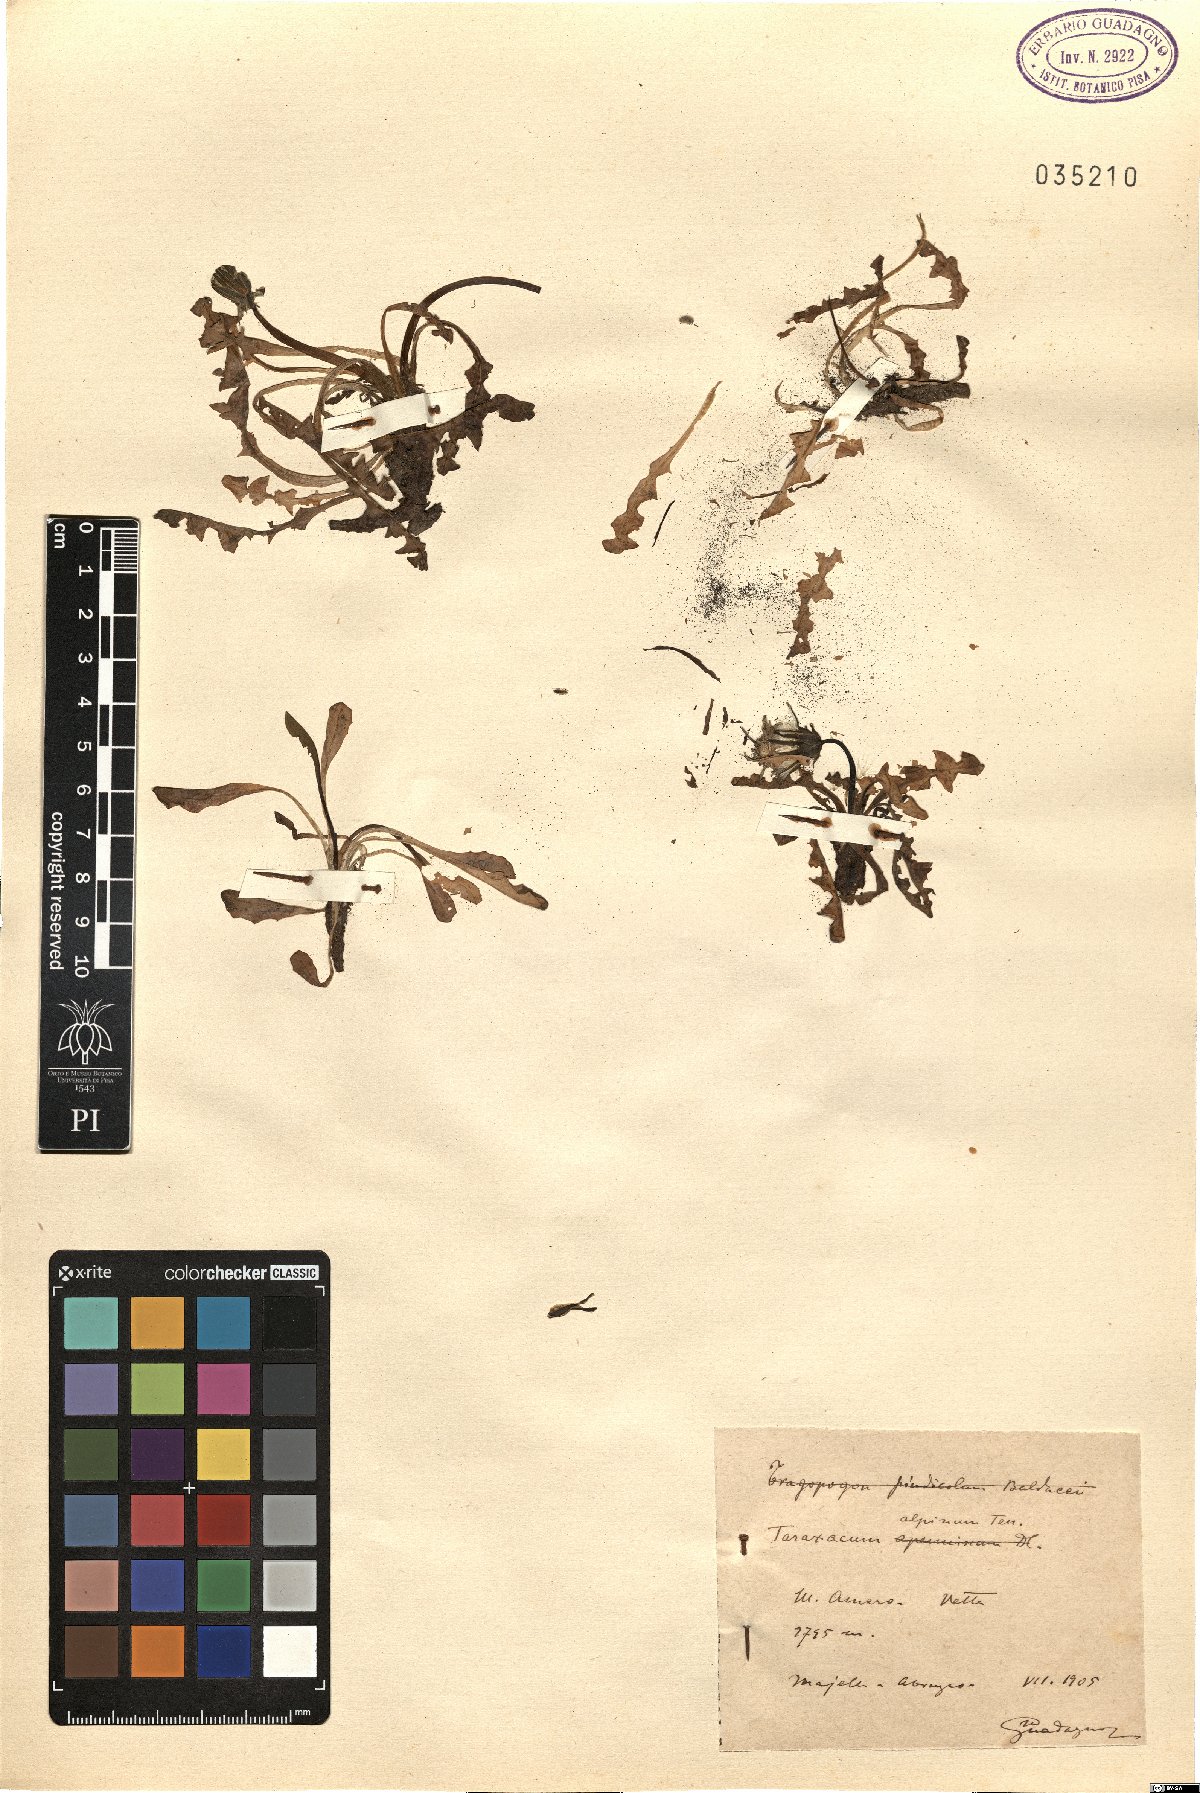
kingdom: Plantae
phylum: Tracheophyta
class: Magnoliopsida
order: Asterales
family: Asteraceae
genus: Taraxacum
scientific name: Taraxacum alpinum
